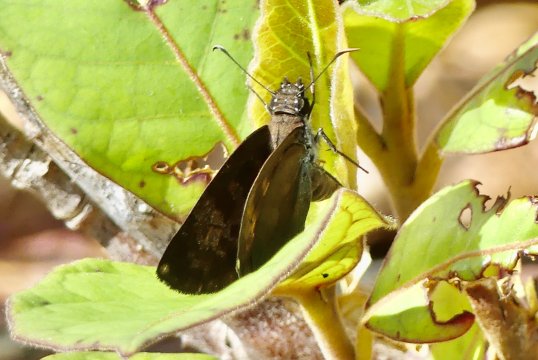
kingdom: Animalia
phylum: Arthropoda
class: Insecta
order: Lepidoptera
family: Hesperiidae
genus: Anastrus
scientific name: Anastrus sempiternus
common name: Common Anastrus
